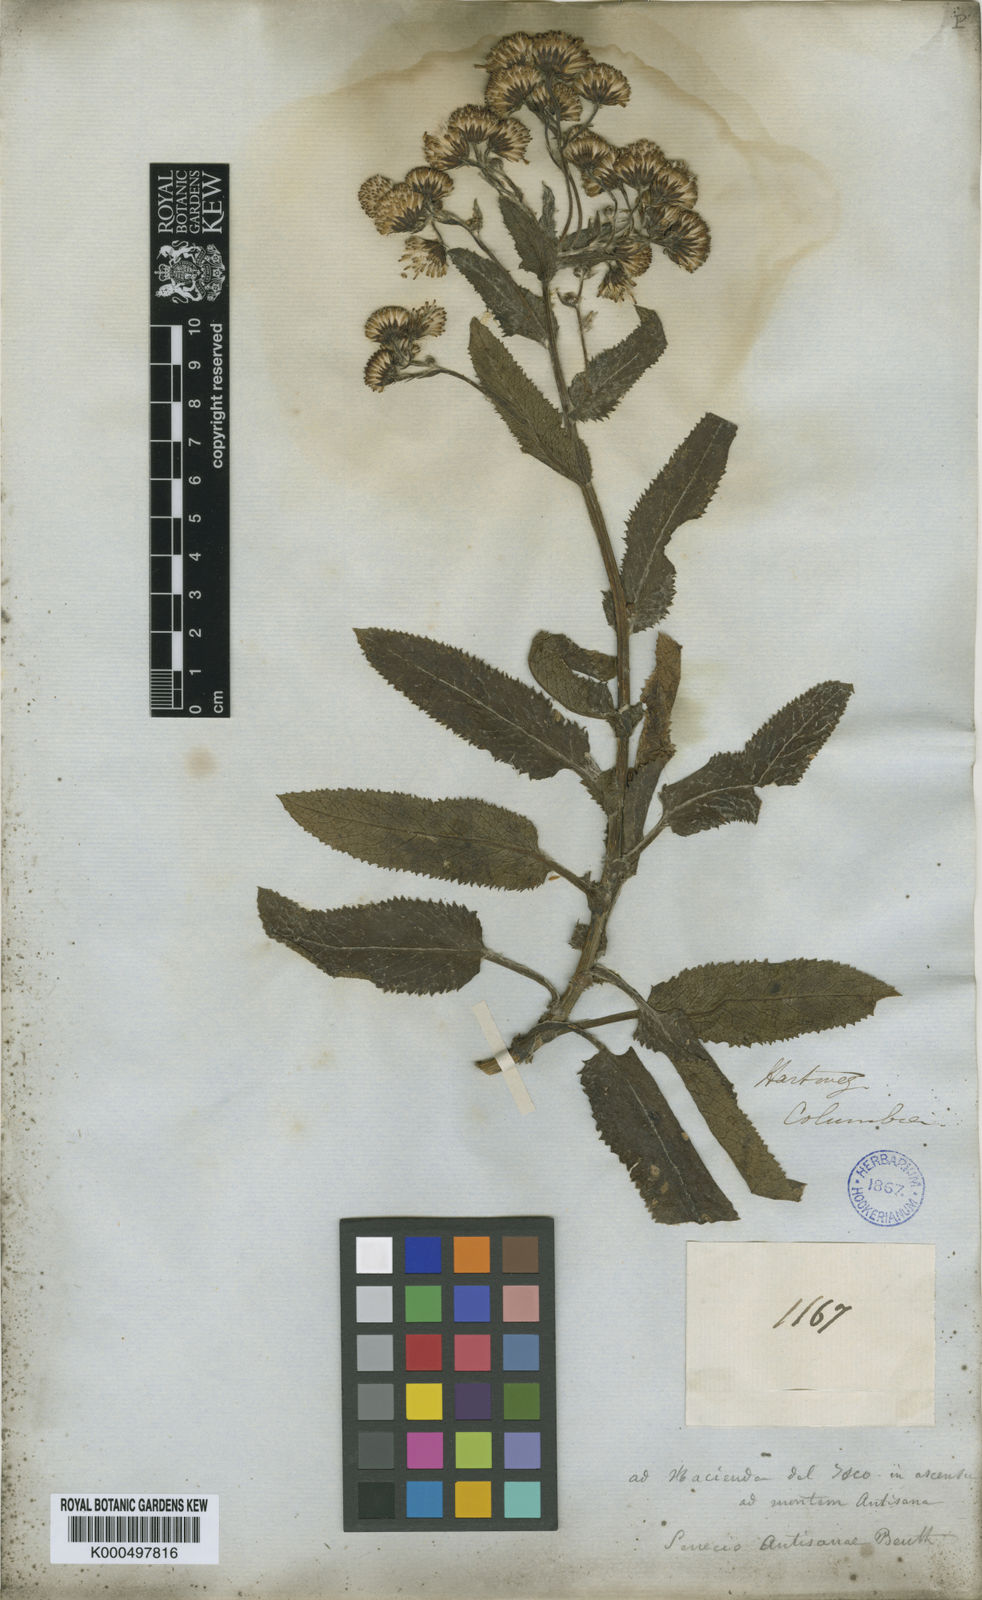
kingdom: Plantae
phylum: Tracheophyta
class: Magnoliopsida
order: Asterales
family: Asteraceae
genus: Aetheolaena
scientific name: Aetheolaena senecioides
